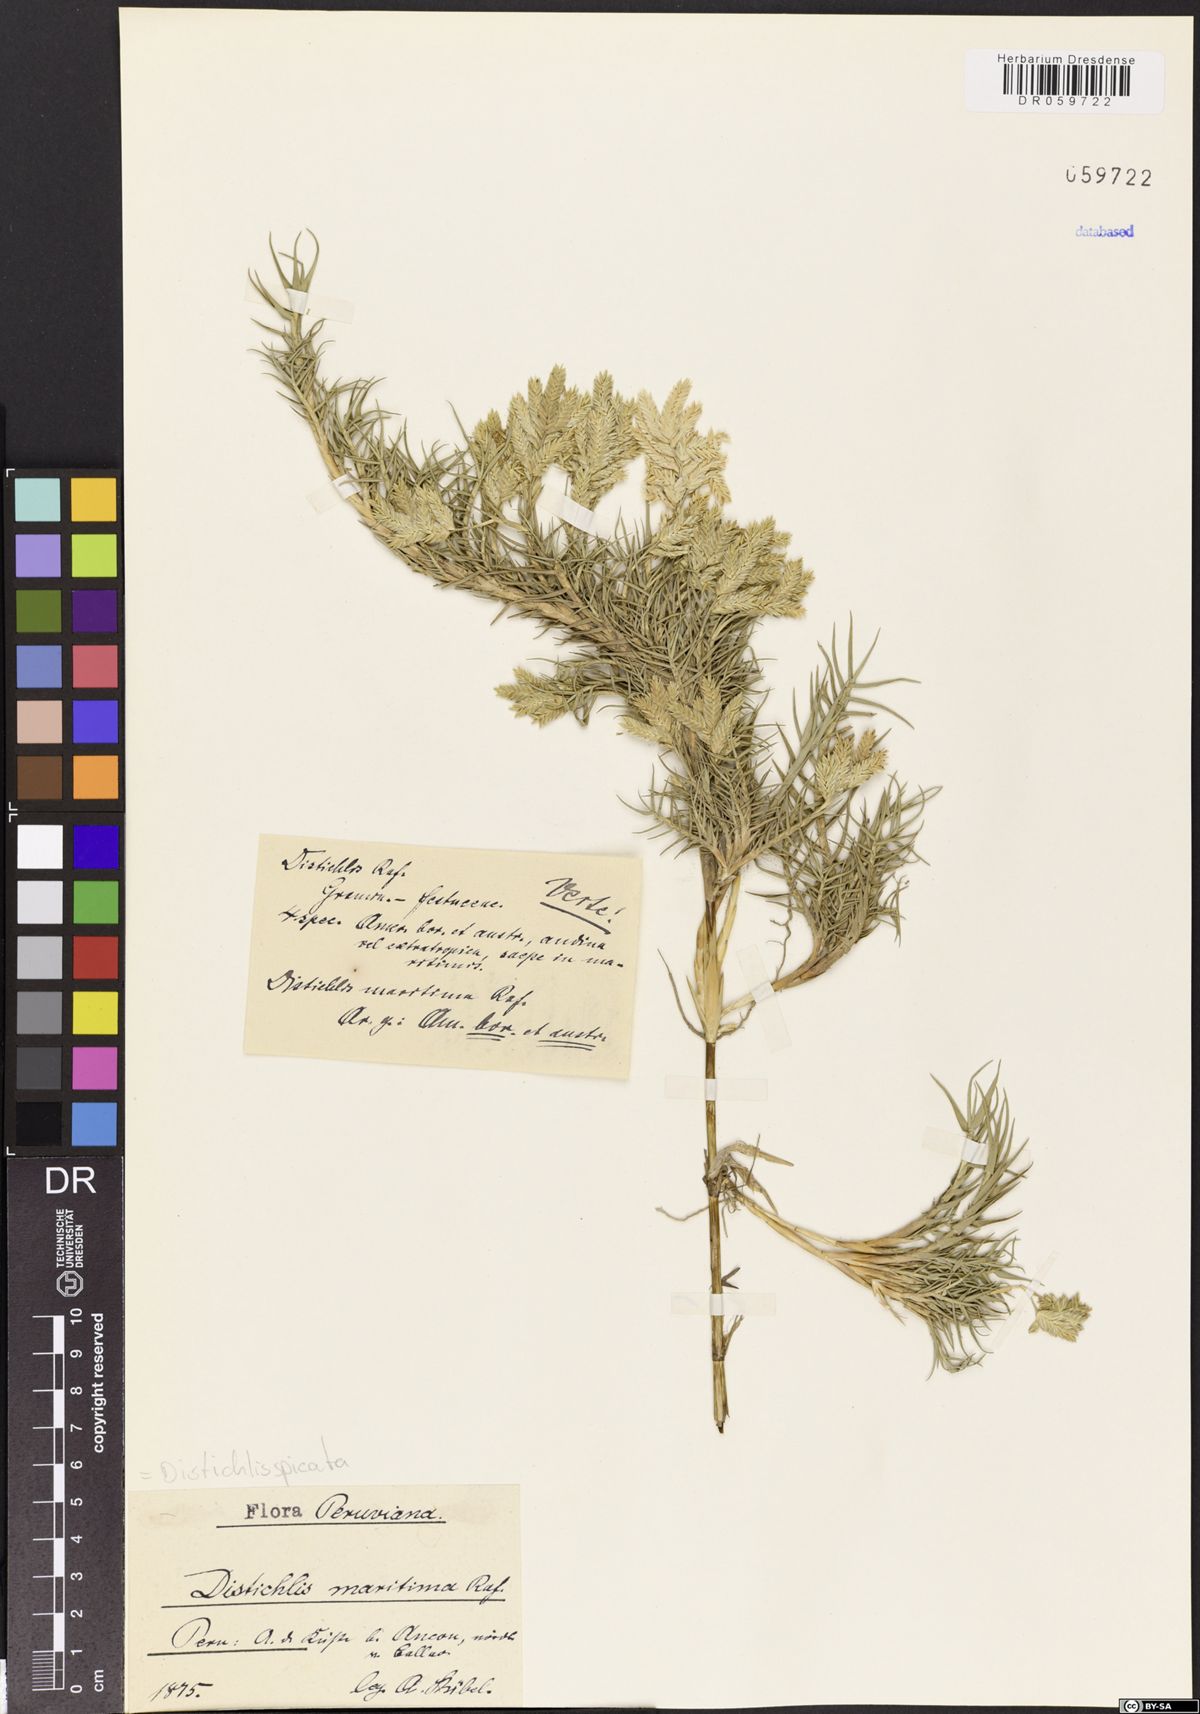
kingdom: Plantae
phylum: Tracheophyta
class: Liliopsida
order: Poales
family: Poaceae
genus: Distichlis
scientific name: Distichlis spicata
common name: Saltgrass
